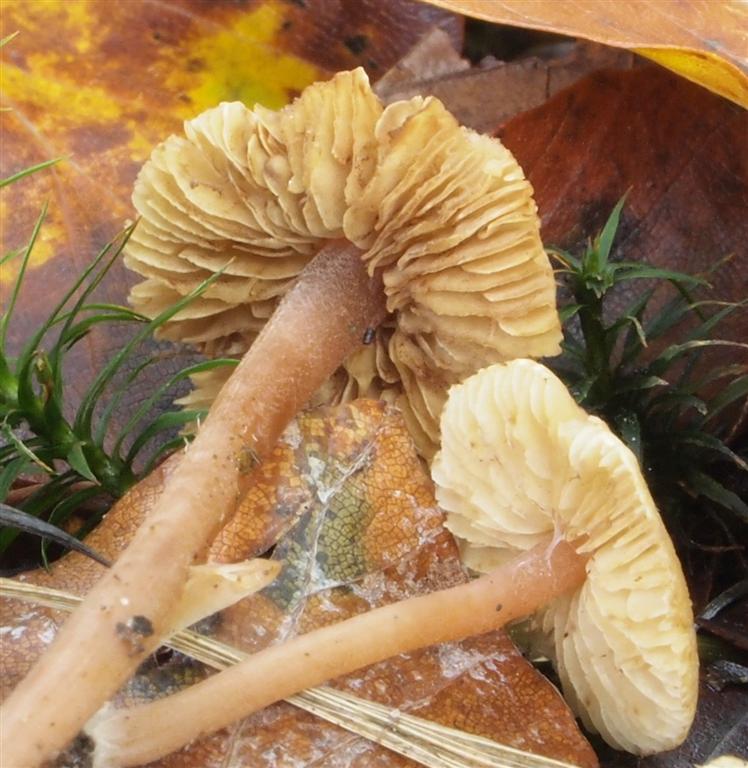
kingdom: Fungi
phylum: Basidiomycota
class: Agaricomycetes
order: Agaricales
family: Inocybaceae
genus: Inocybe
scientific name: Inocybe petiginosa
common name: liden trævlhat
